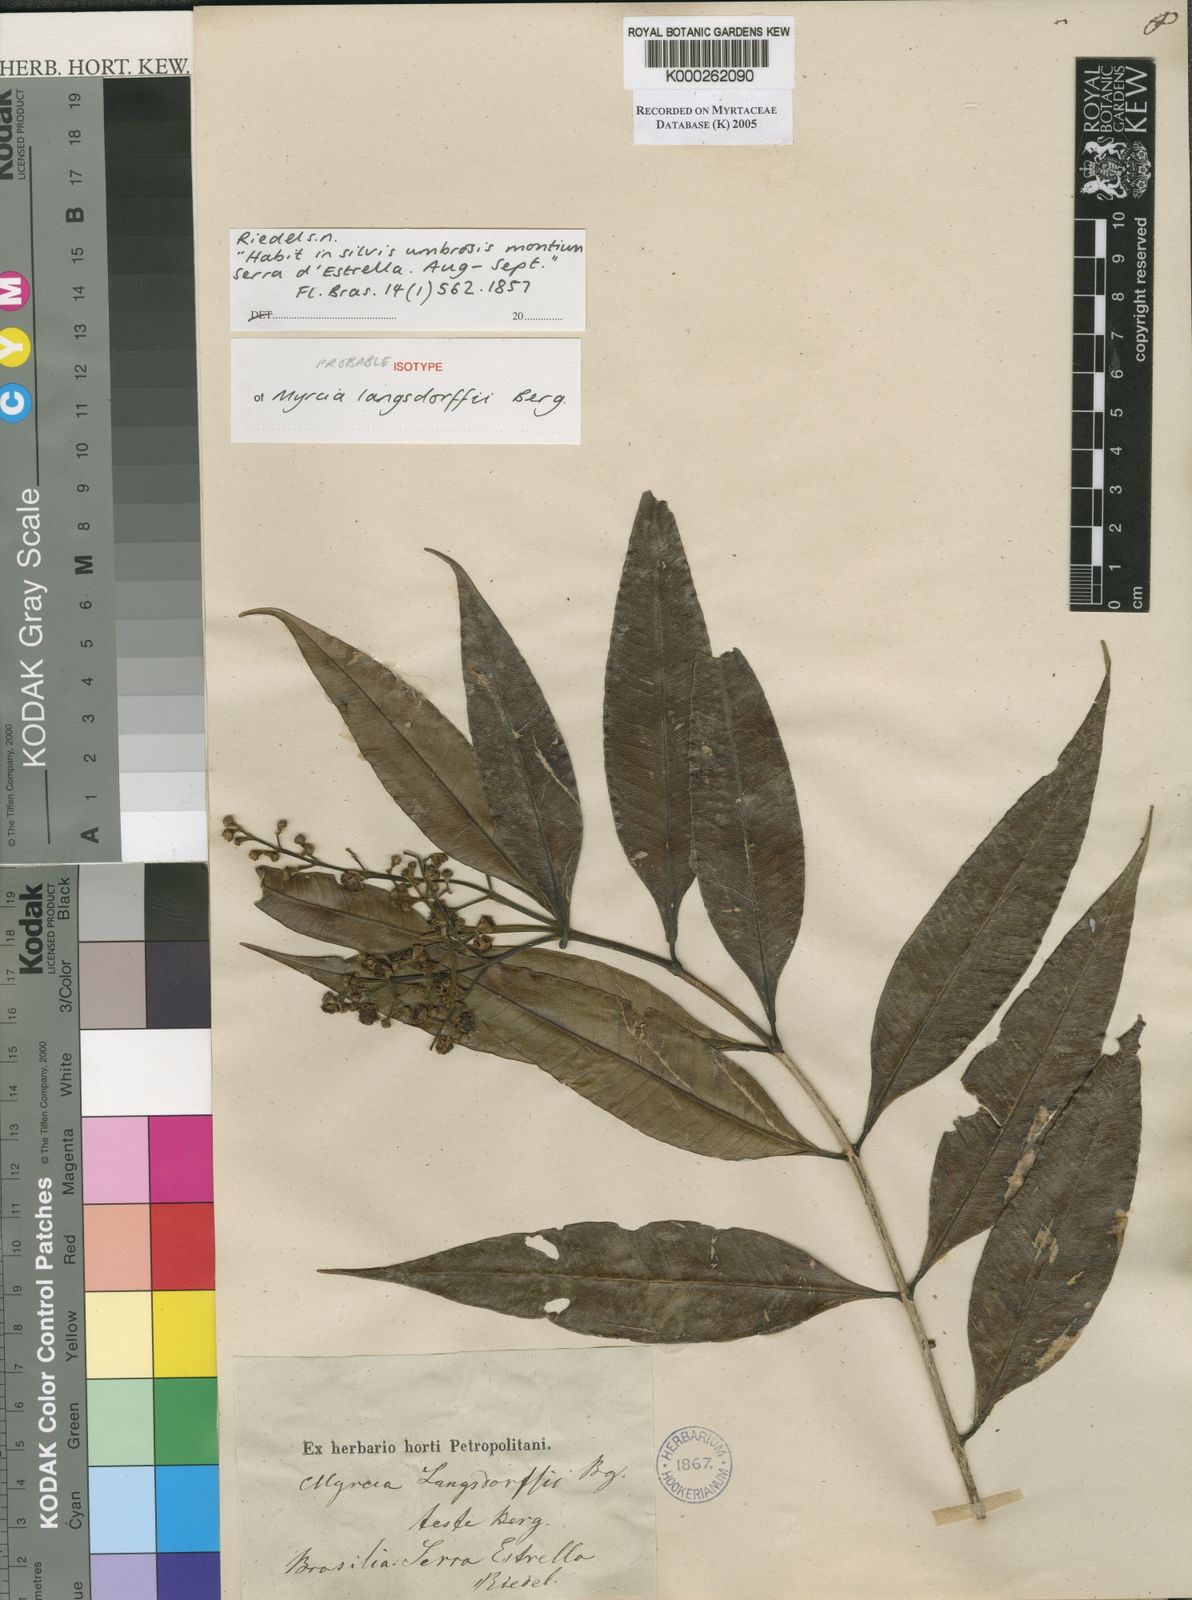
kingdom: Plantae
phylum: Tracheophyta
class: Magnoliopsida
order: Myrtales
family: Myrtaceae
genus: Myrcia
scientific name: Myrcia splendens
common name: Surinam cherry
